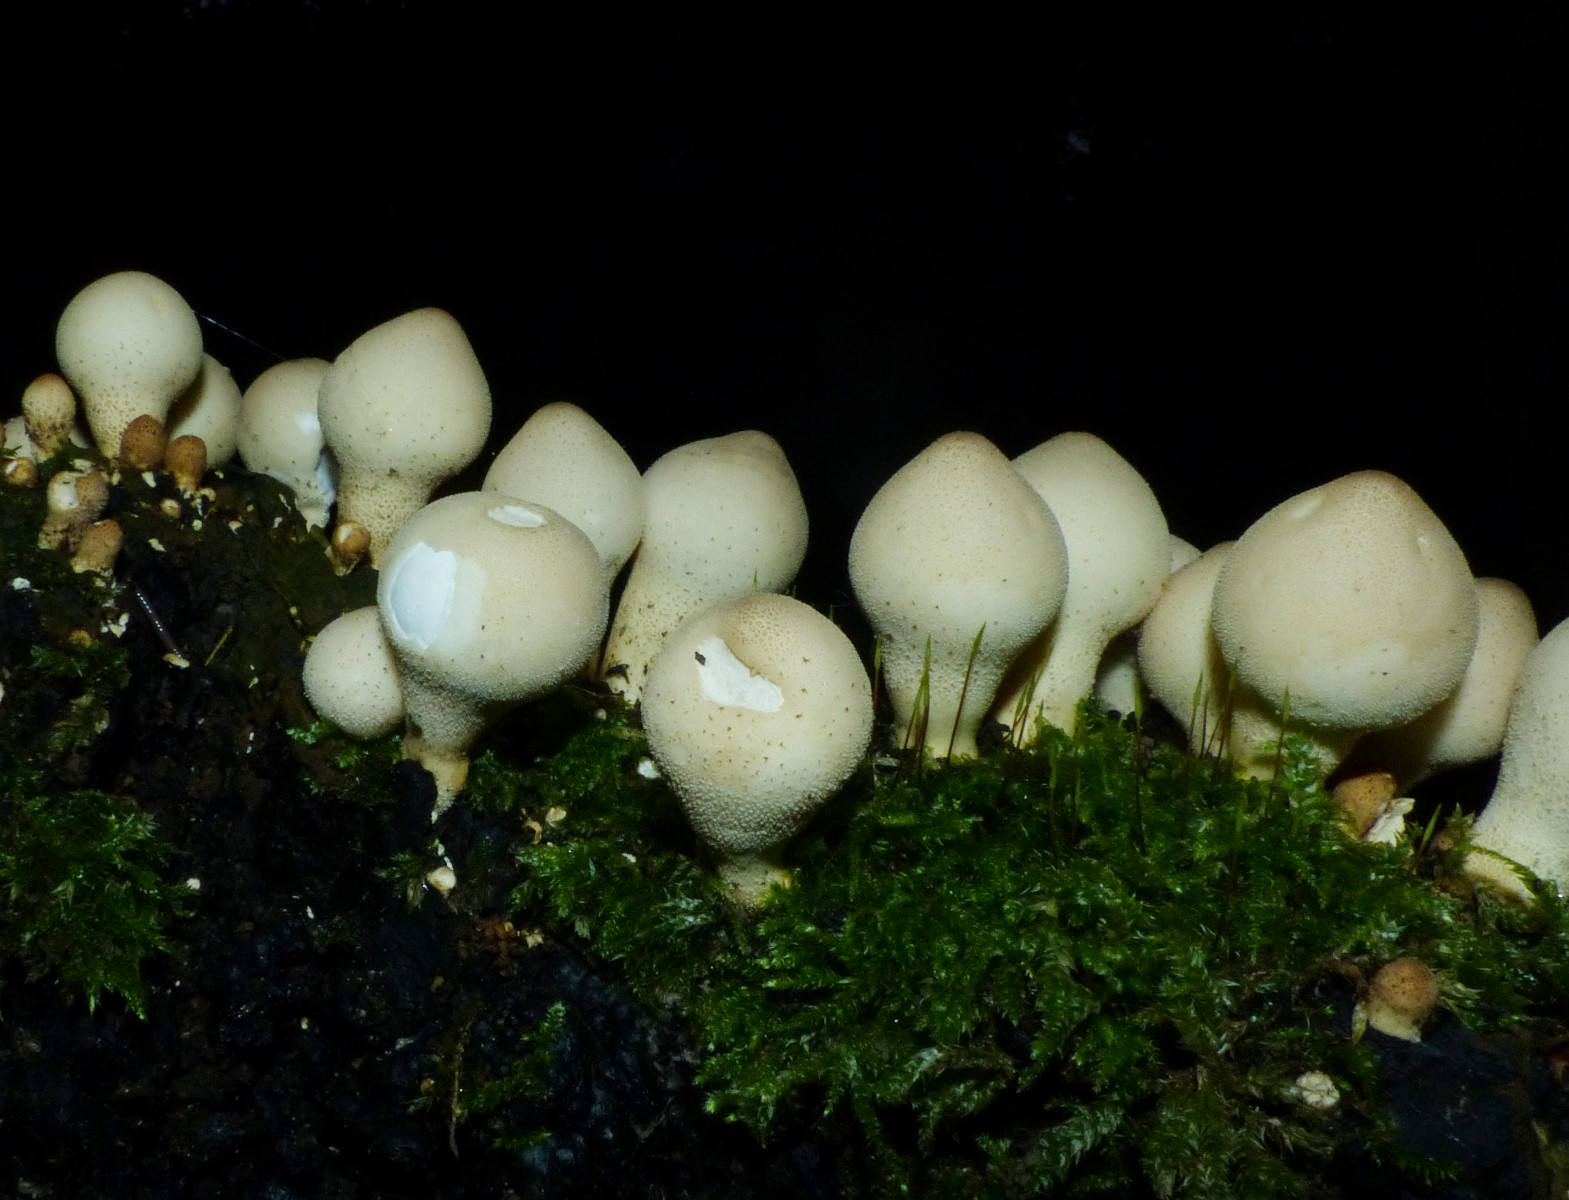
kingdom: Fungi
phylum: Basidiomycota
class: Agaricomycetes
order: Agaricales
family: Lycoperdaceae
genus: Apioperdon
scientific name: Apioperdon pyriforme
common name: pære-støvbold
